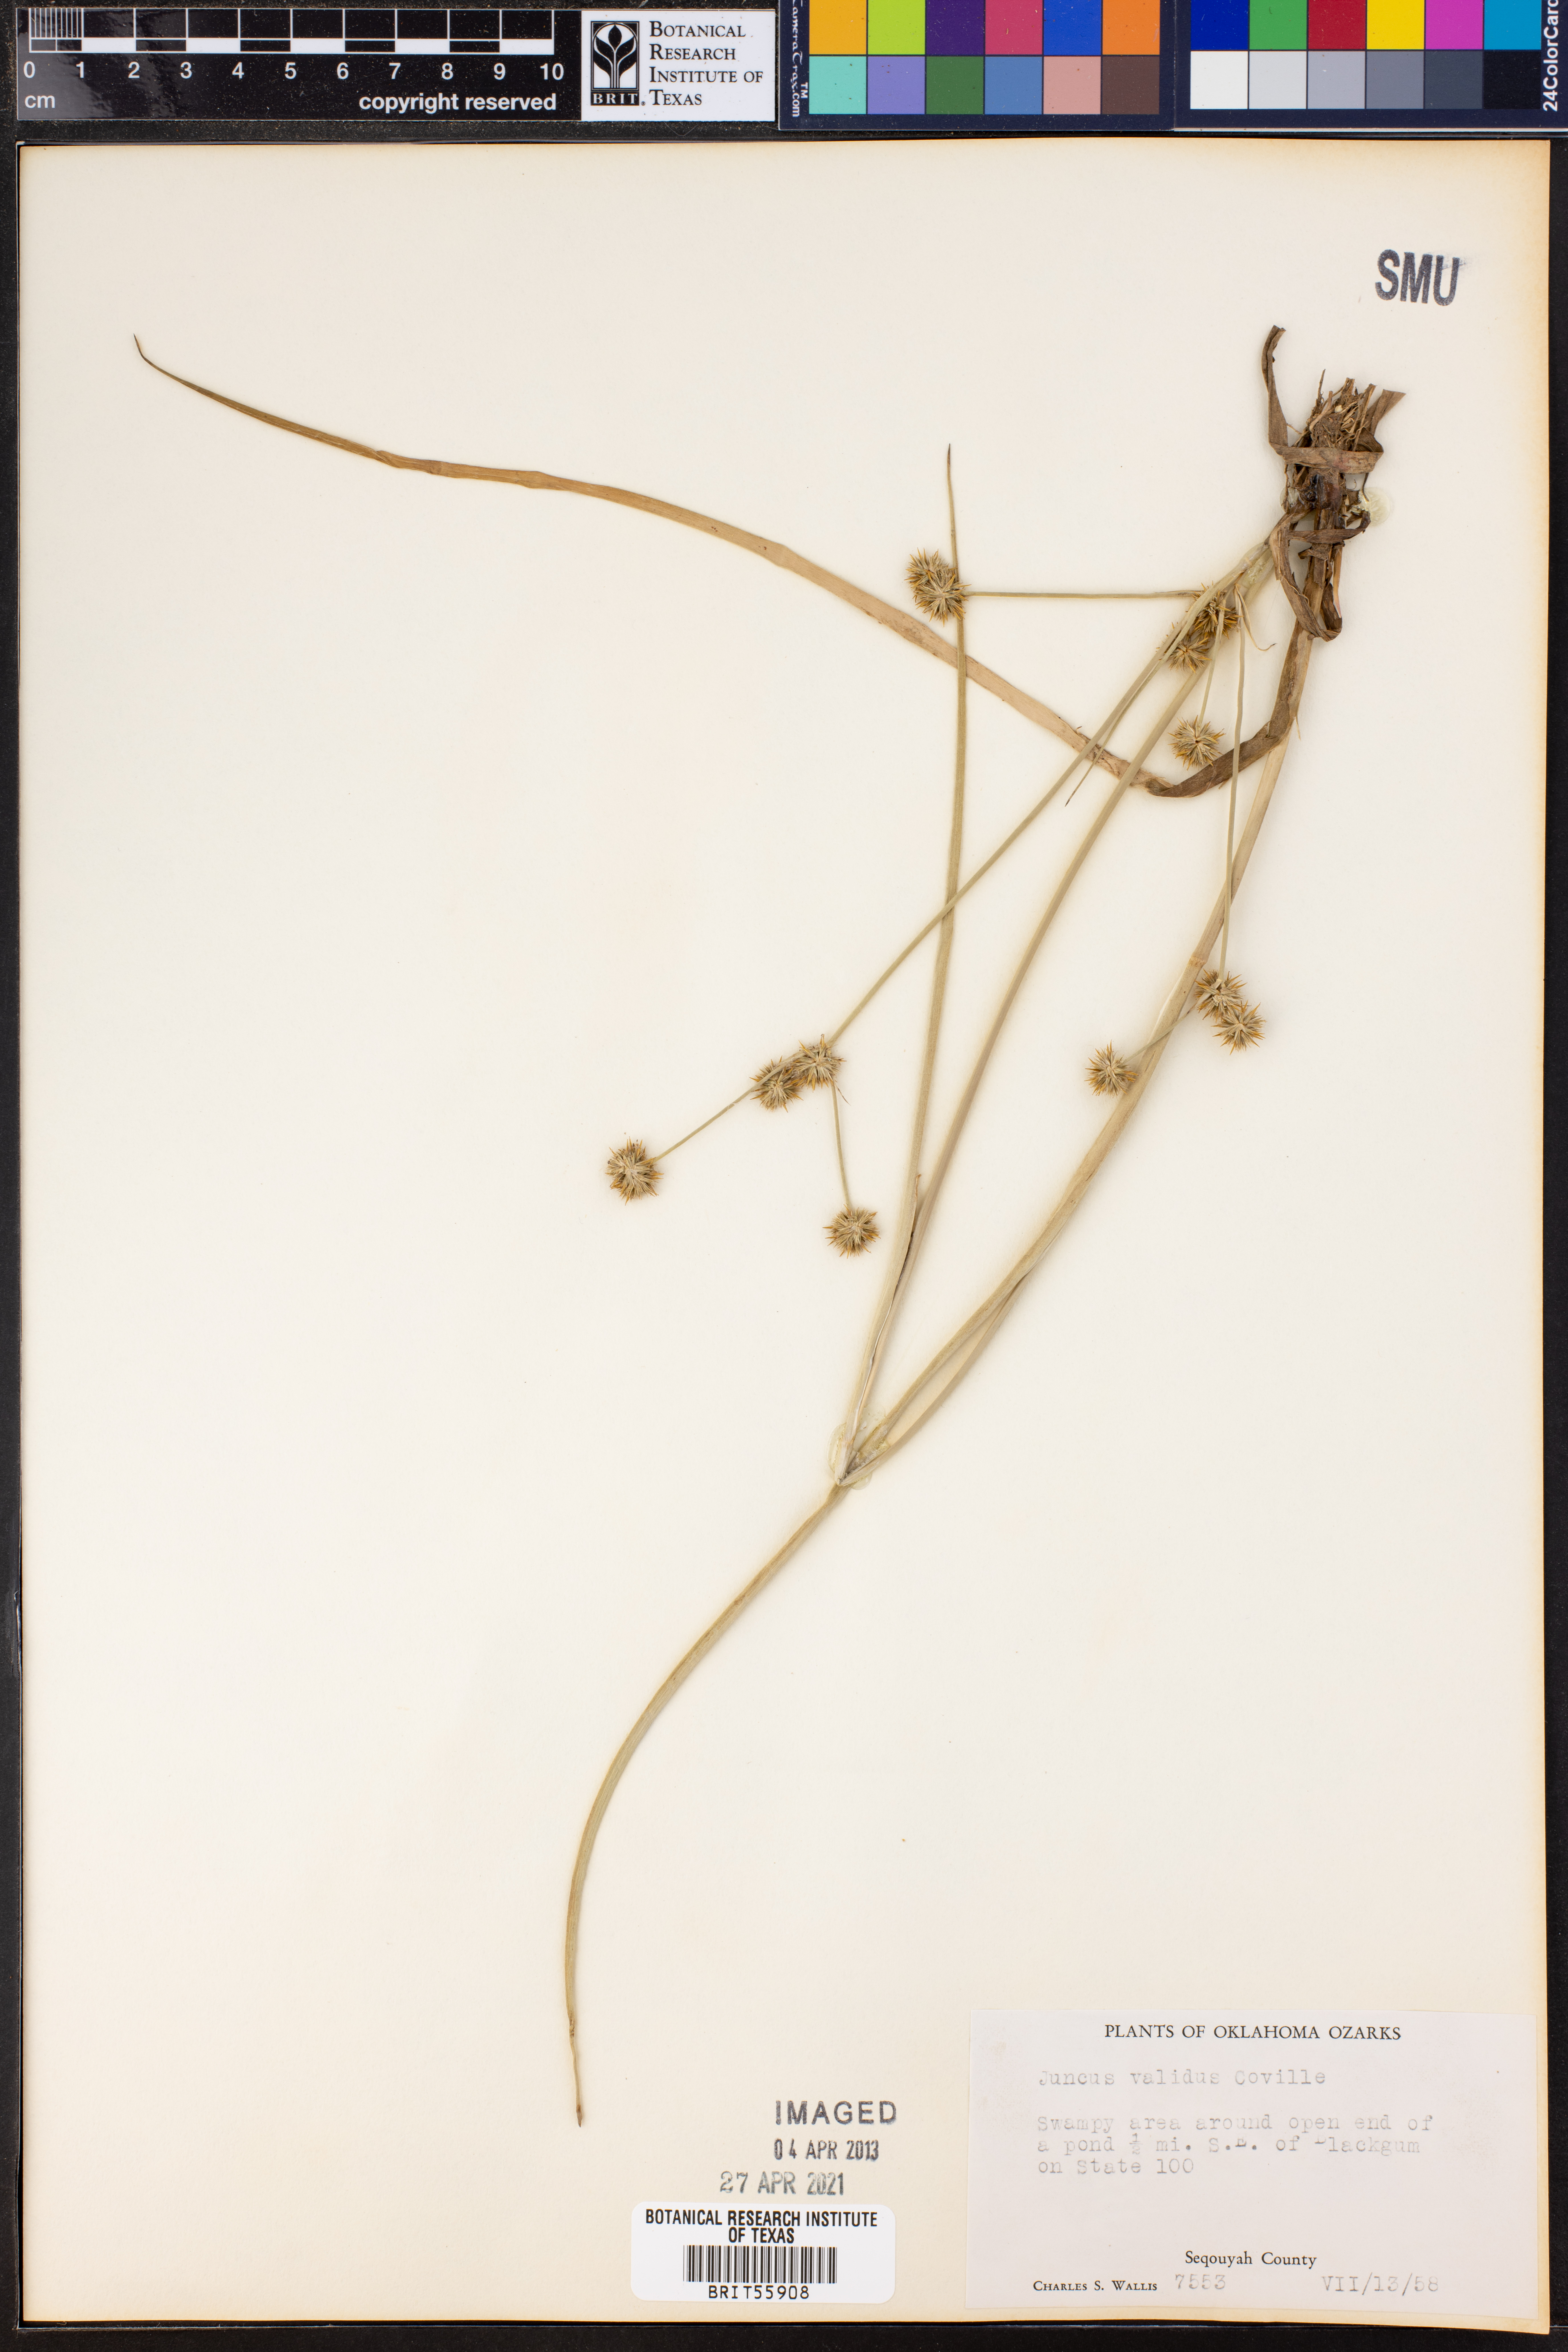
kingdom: Plantae
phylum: Tracheophyta
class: Liliopsida
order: Poales
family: Juncaceae
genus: Juncus
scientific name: Juncus validus
